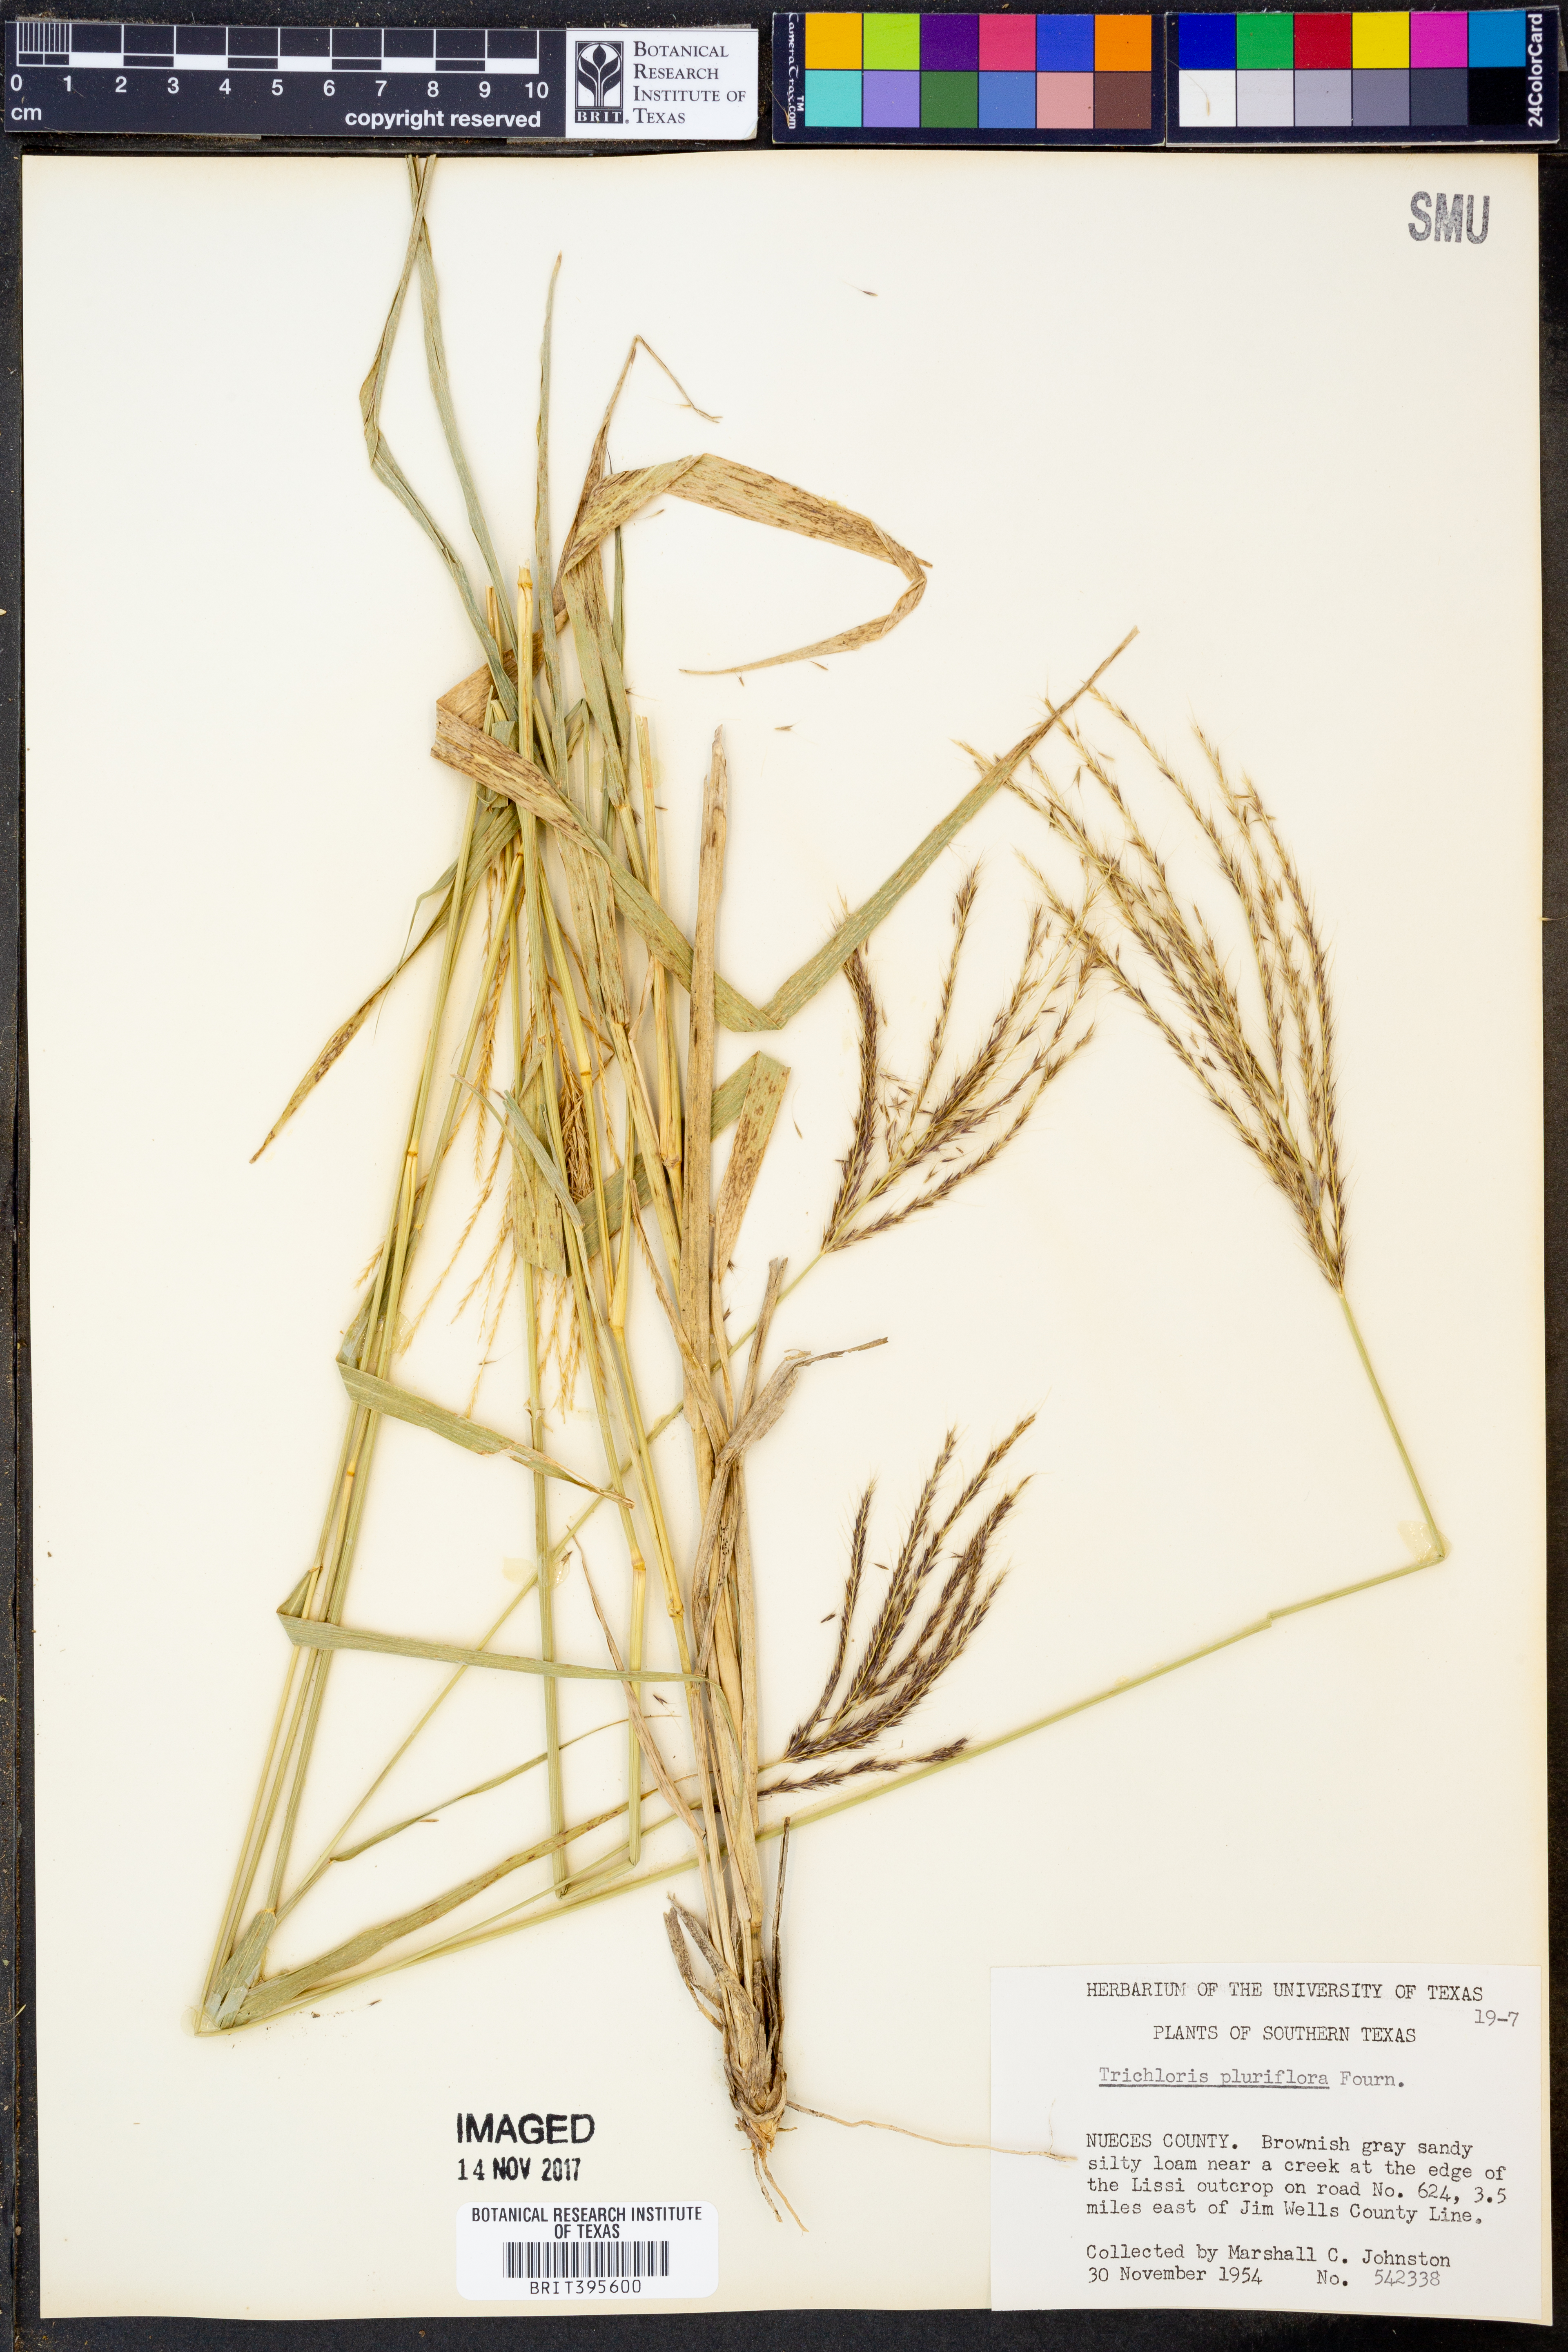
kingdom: Plantae
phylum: Tracheophyta
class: Liliopsida
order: Poales
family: Poaceae
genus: Leptochloa
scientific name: Leptochloa pluriflora
